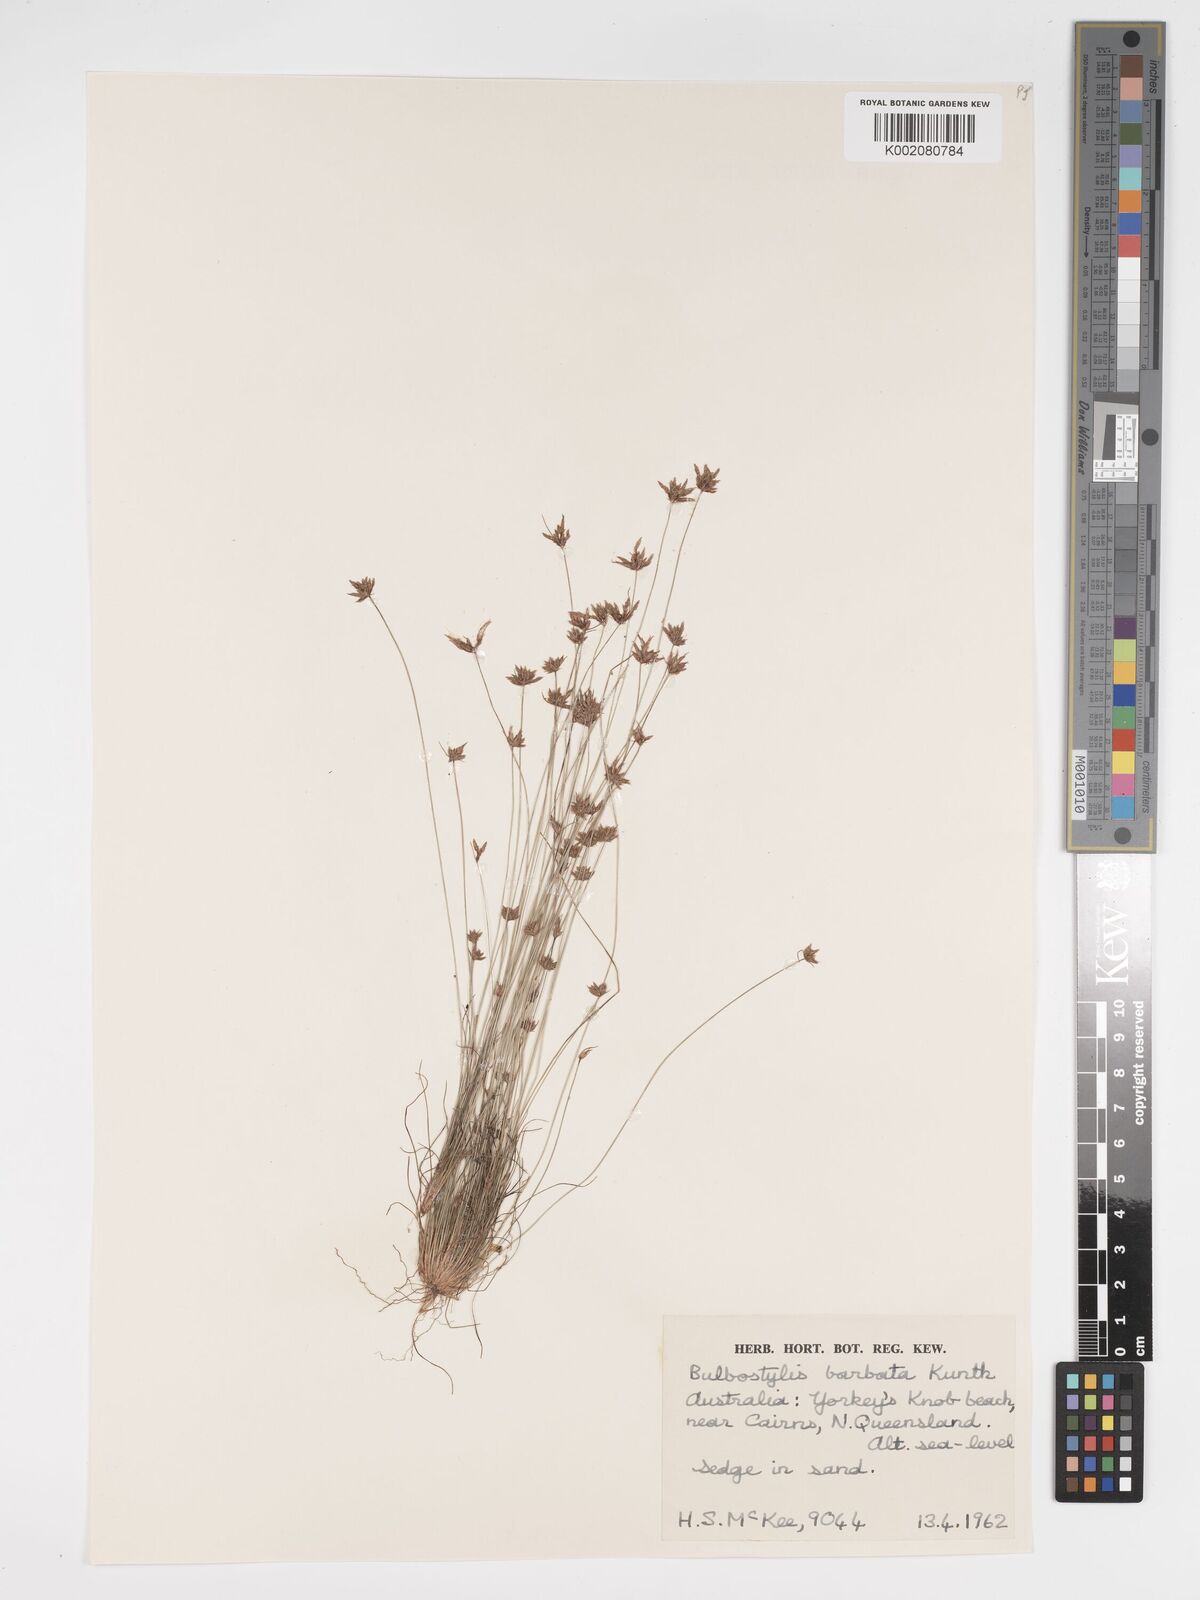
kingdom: Plantae
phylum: Tracheophyta
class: Liliopsida
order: Poales
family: Cyperaceae
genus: Bulbostylis
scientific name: Bulbostylis barbata
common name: Watergrass
